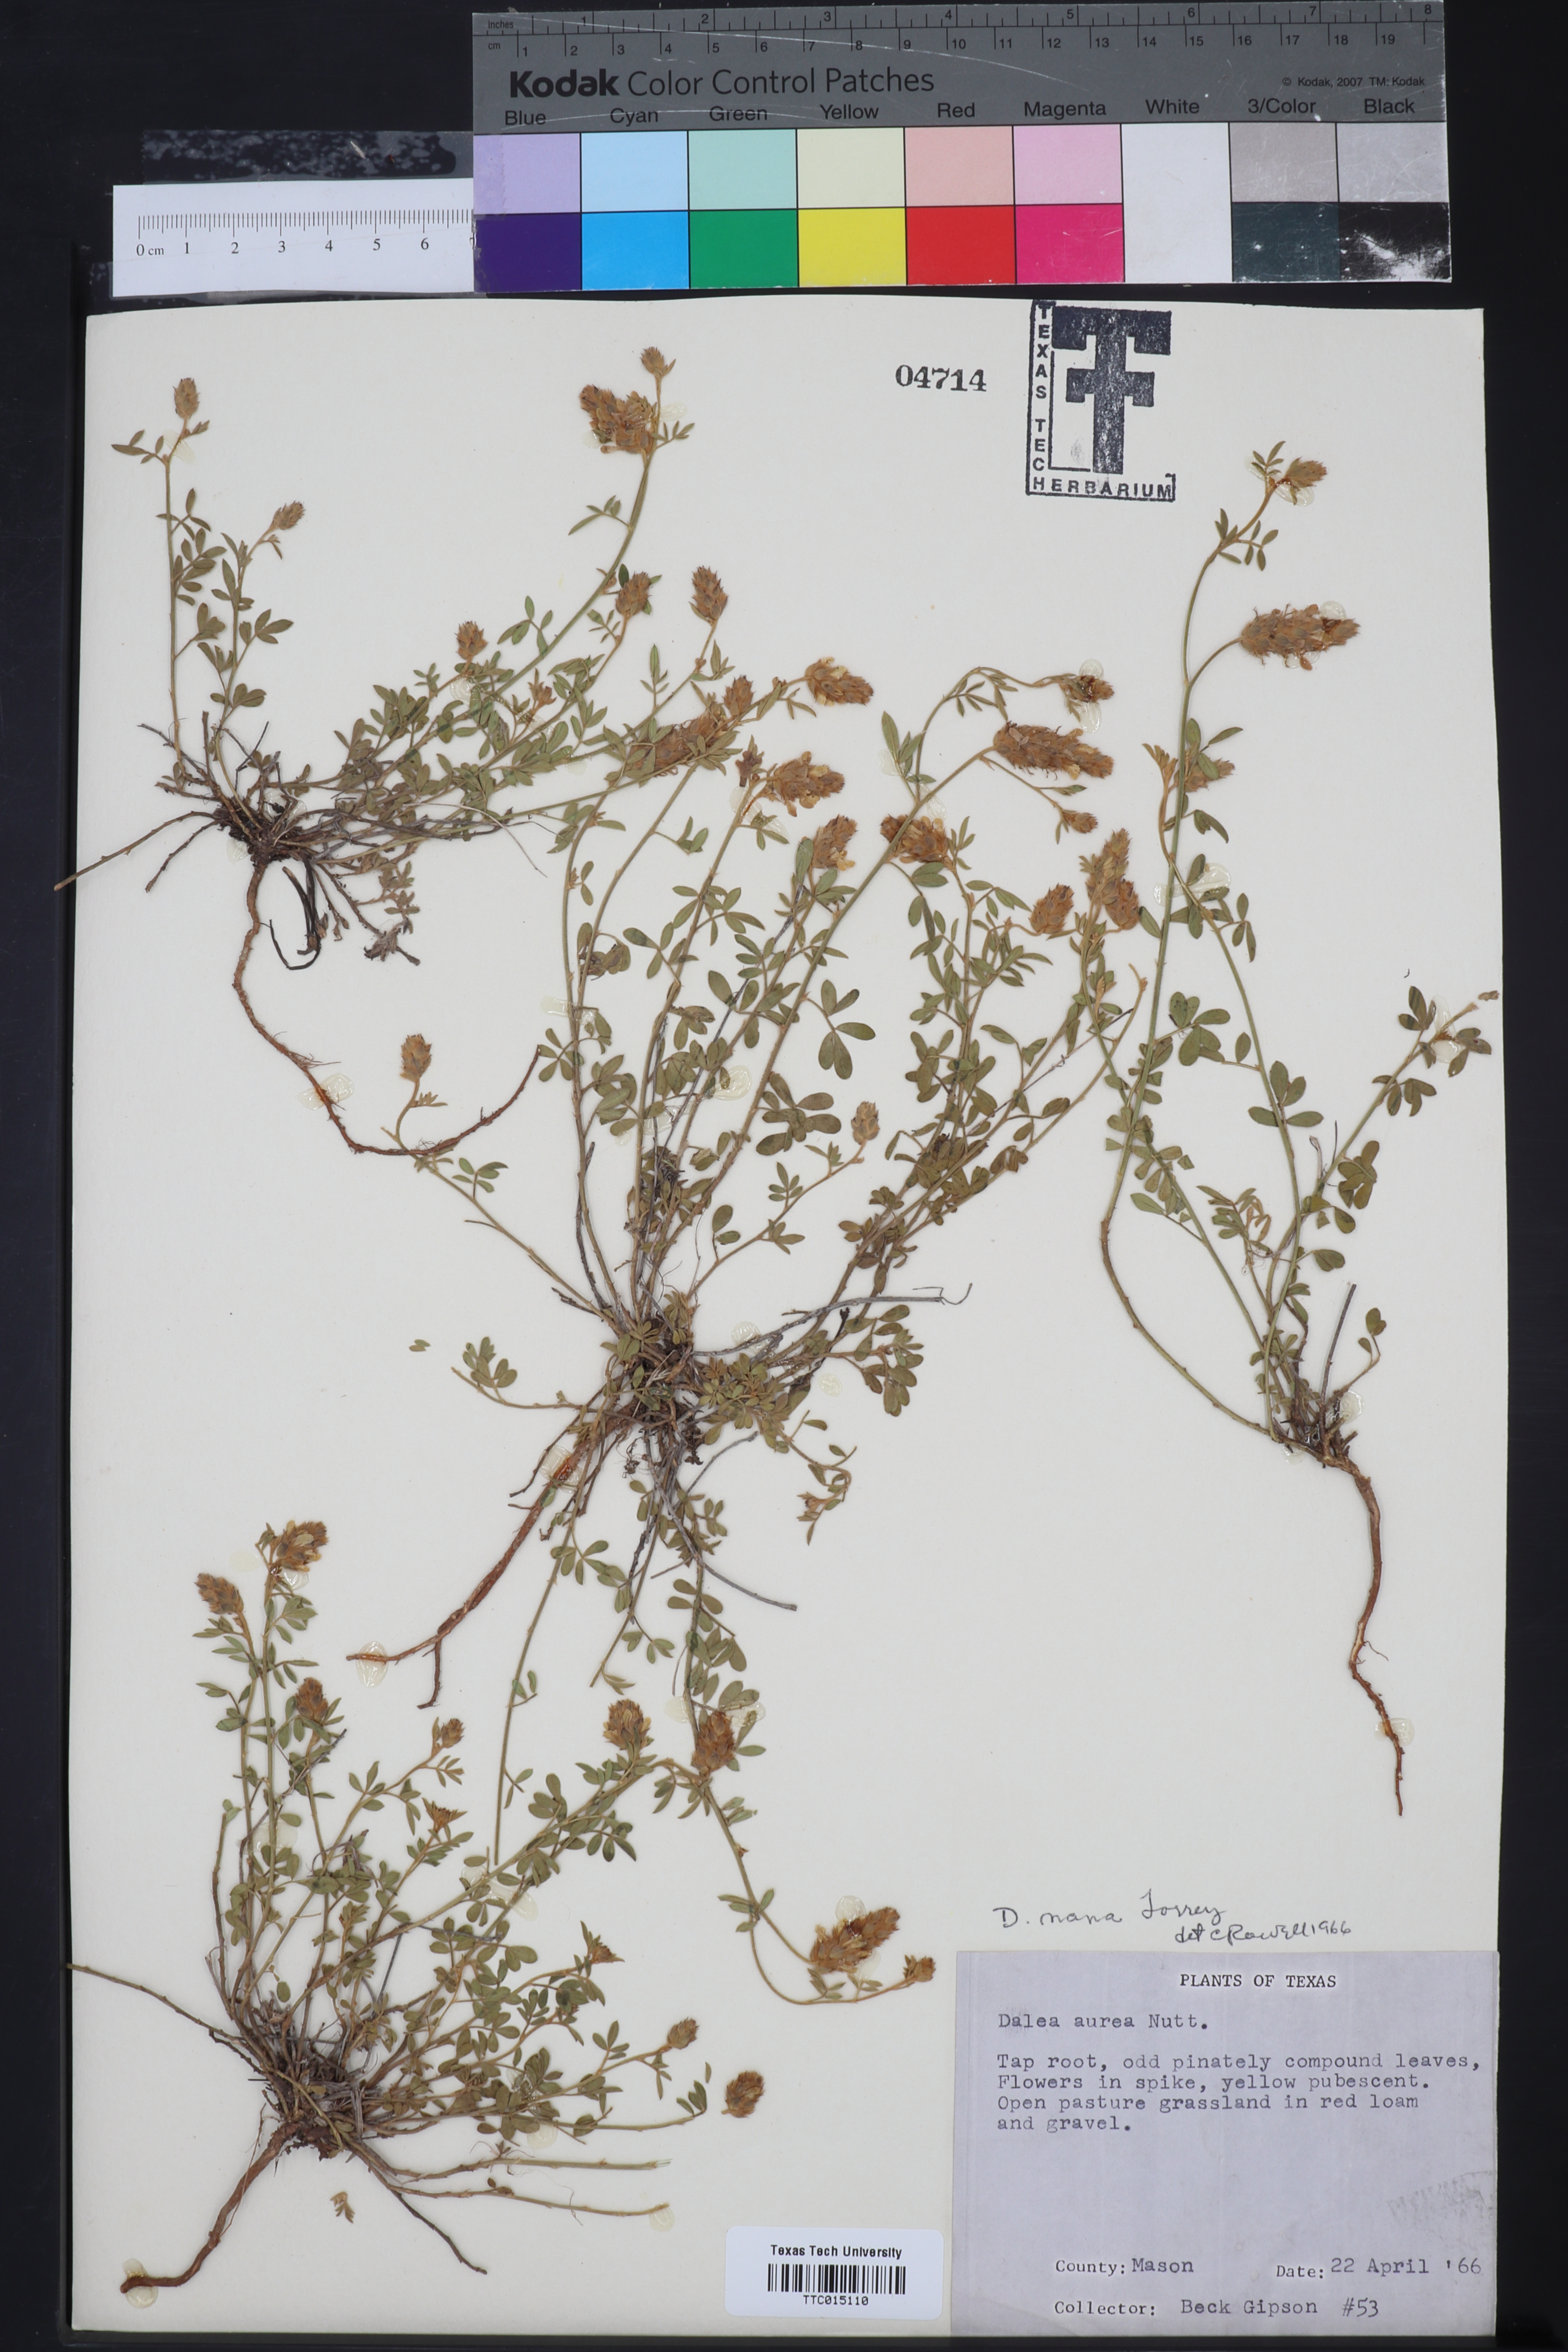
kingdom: Plantae
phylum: Tracheophyta
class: Magnoliopsida
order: Fabales
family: Fabaceae
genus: Dalea
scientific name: Dalea nana
